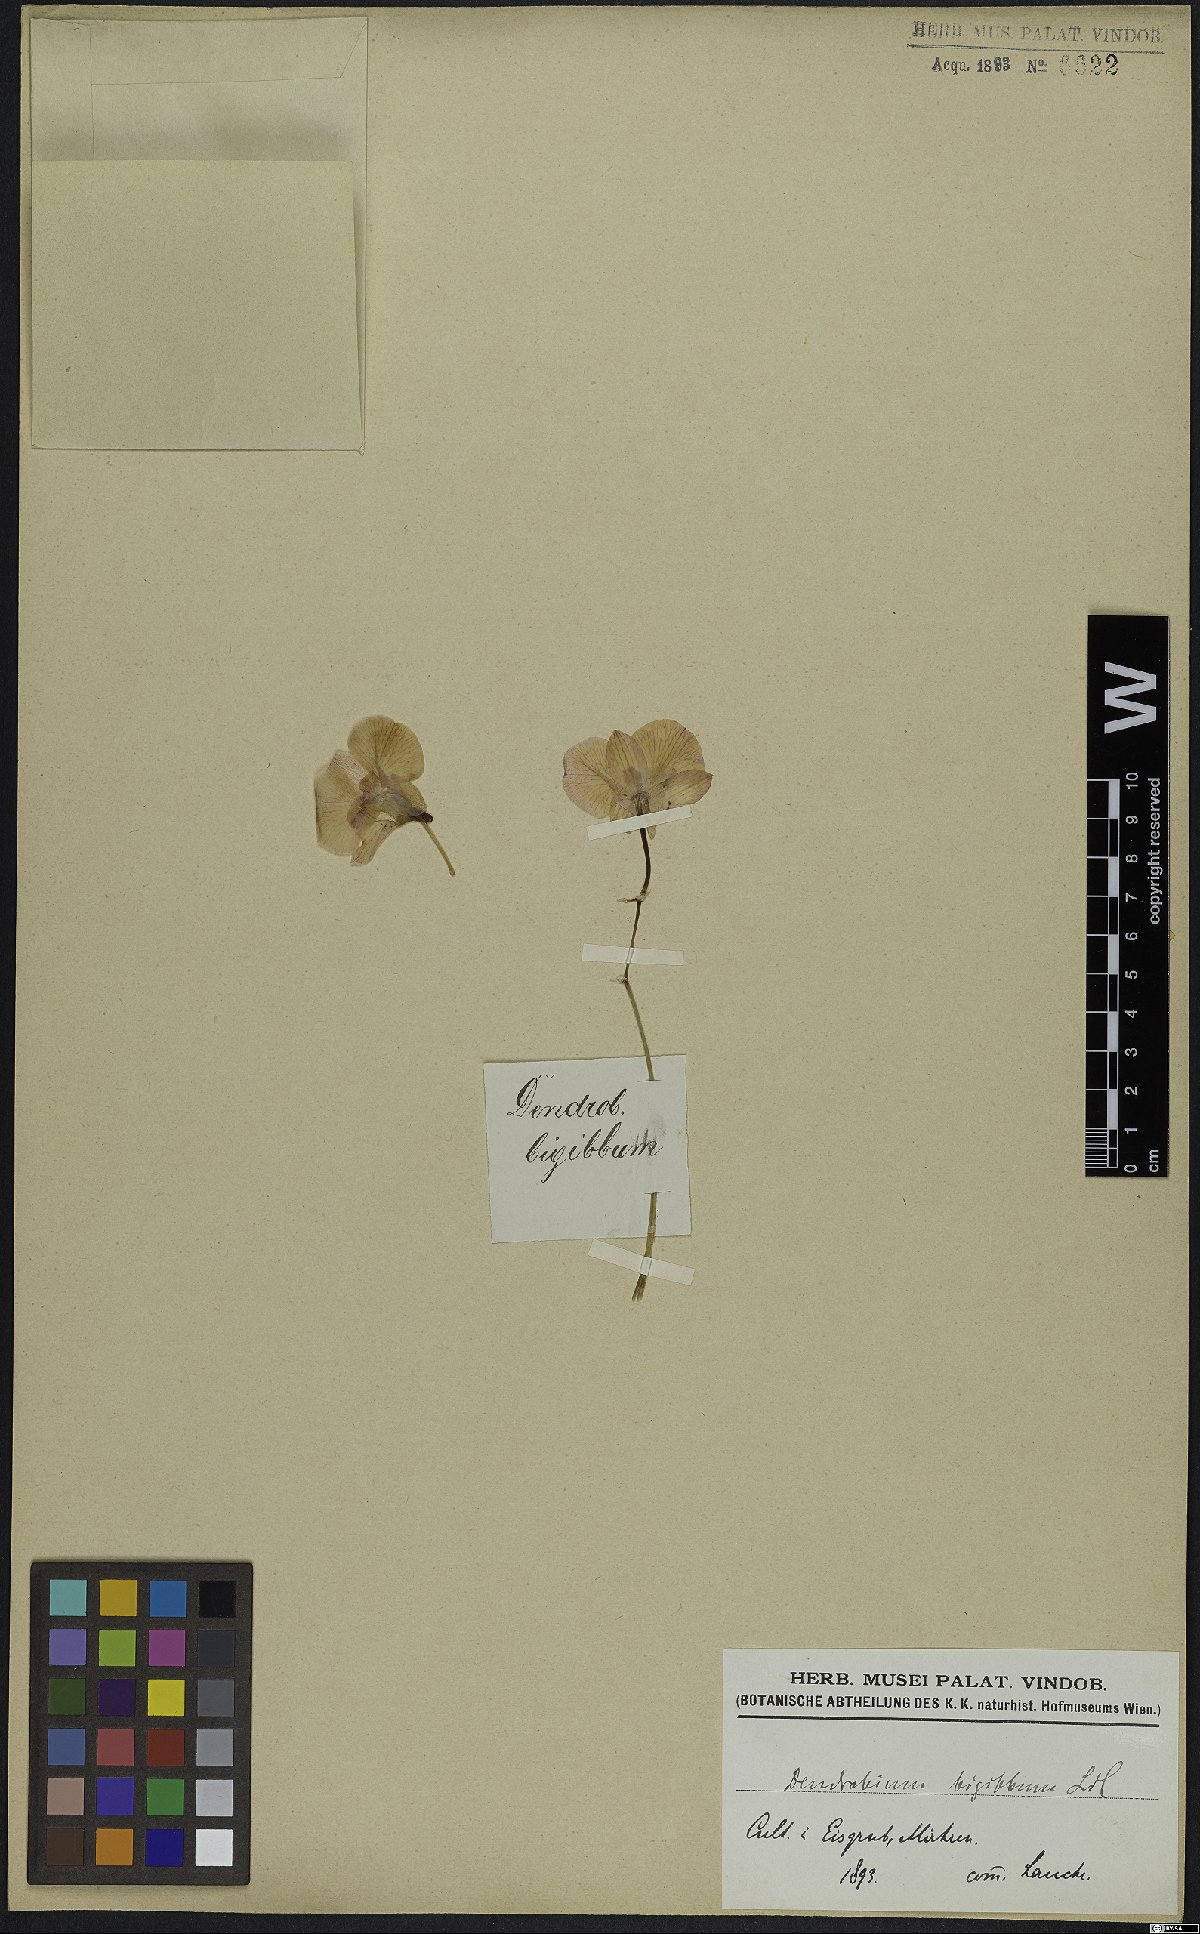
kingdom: Plantae
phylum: Tracheophyta
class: Liliopsida
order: Asparagales
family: Orchidaceae
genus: Dendrobium
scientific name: Dendrobium bigibbum
